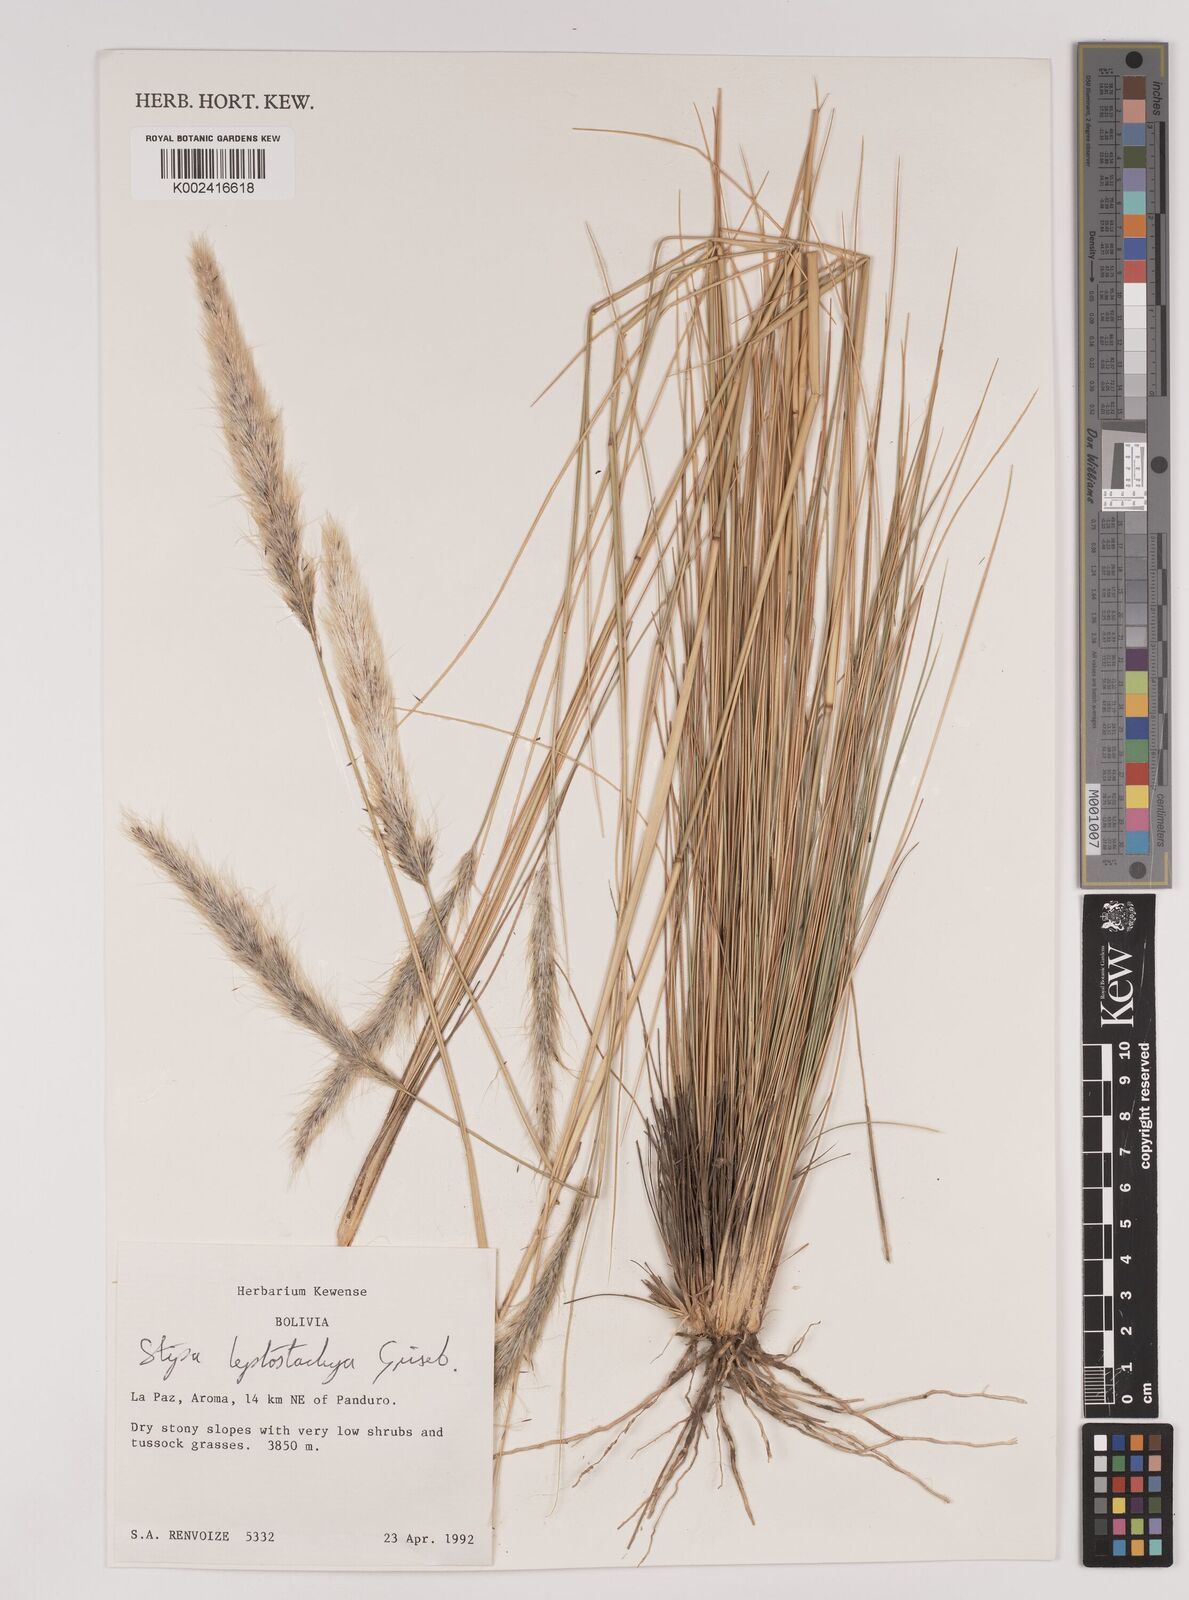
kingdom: Plantae
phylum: Tracheophyta
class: Liliopsida
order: Poales
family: Poaceae
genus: Jarava
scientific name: Jarava leptostachya
